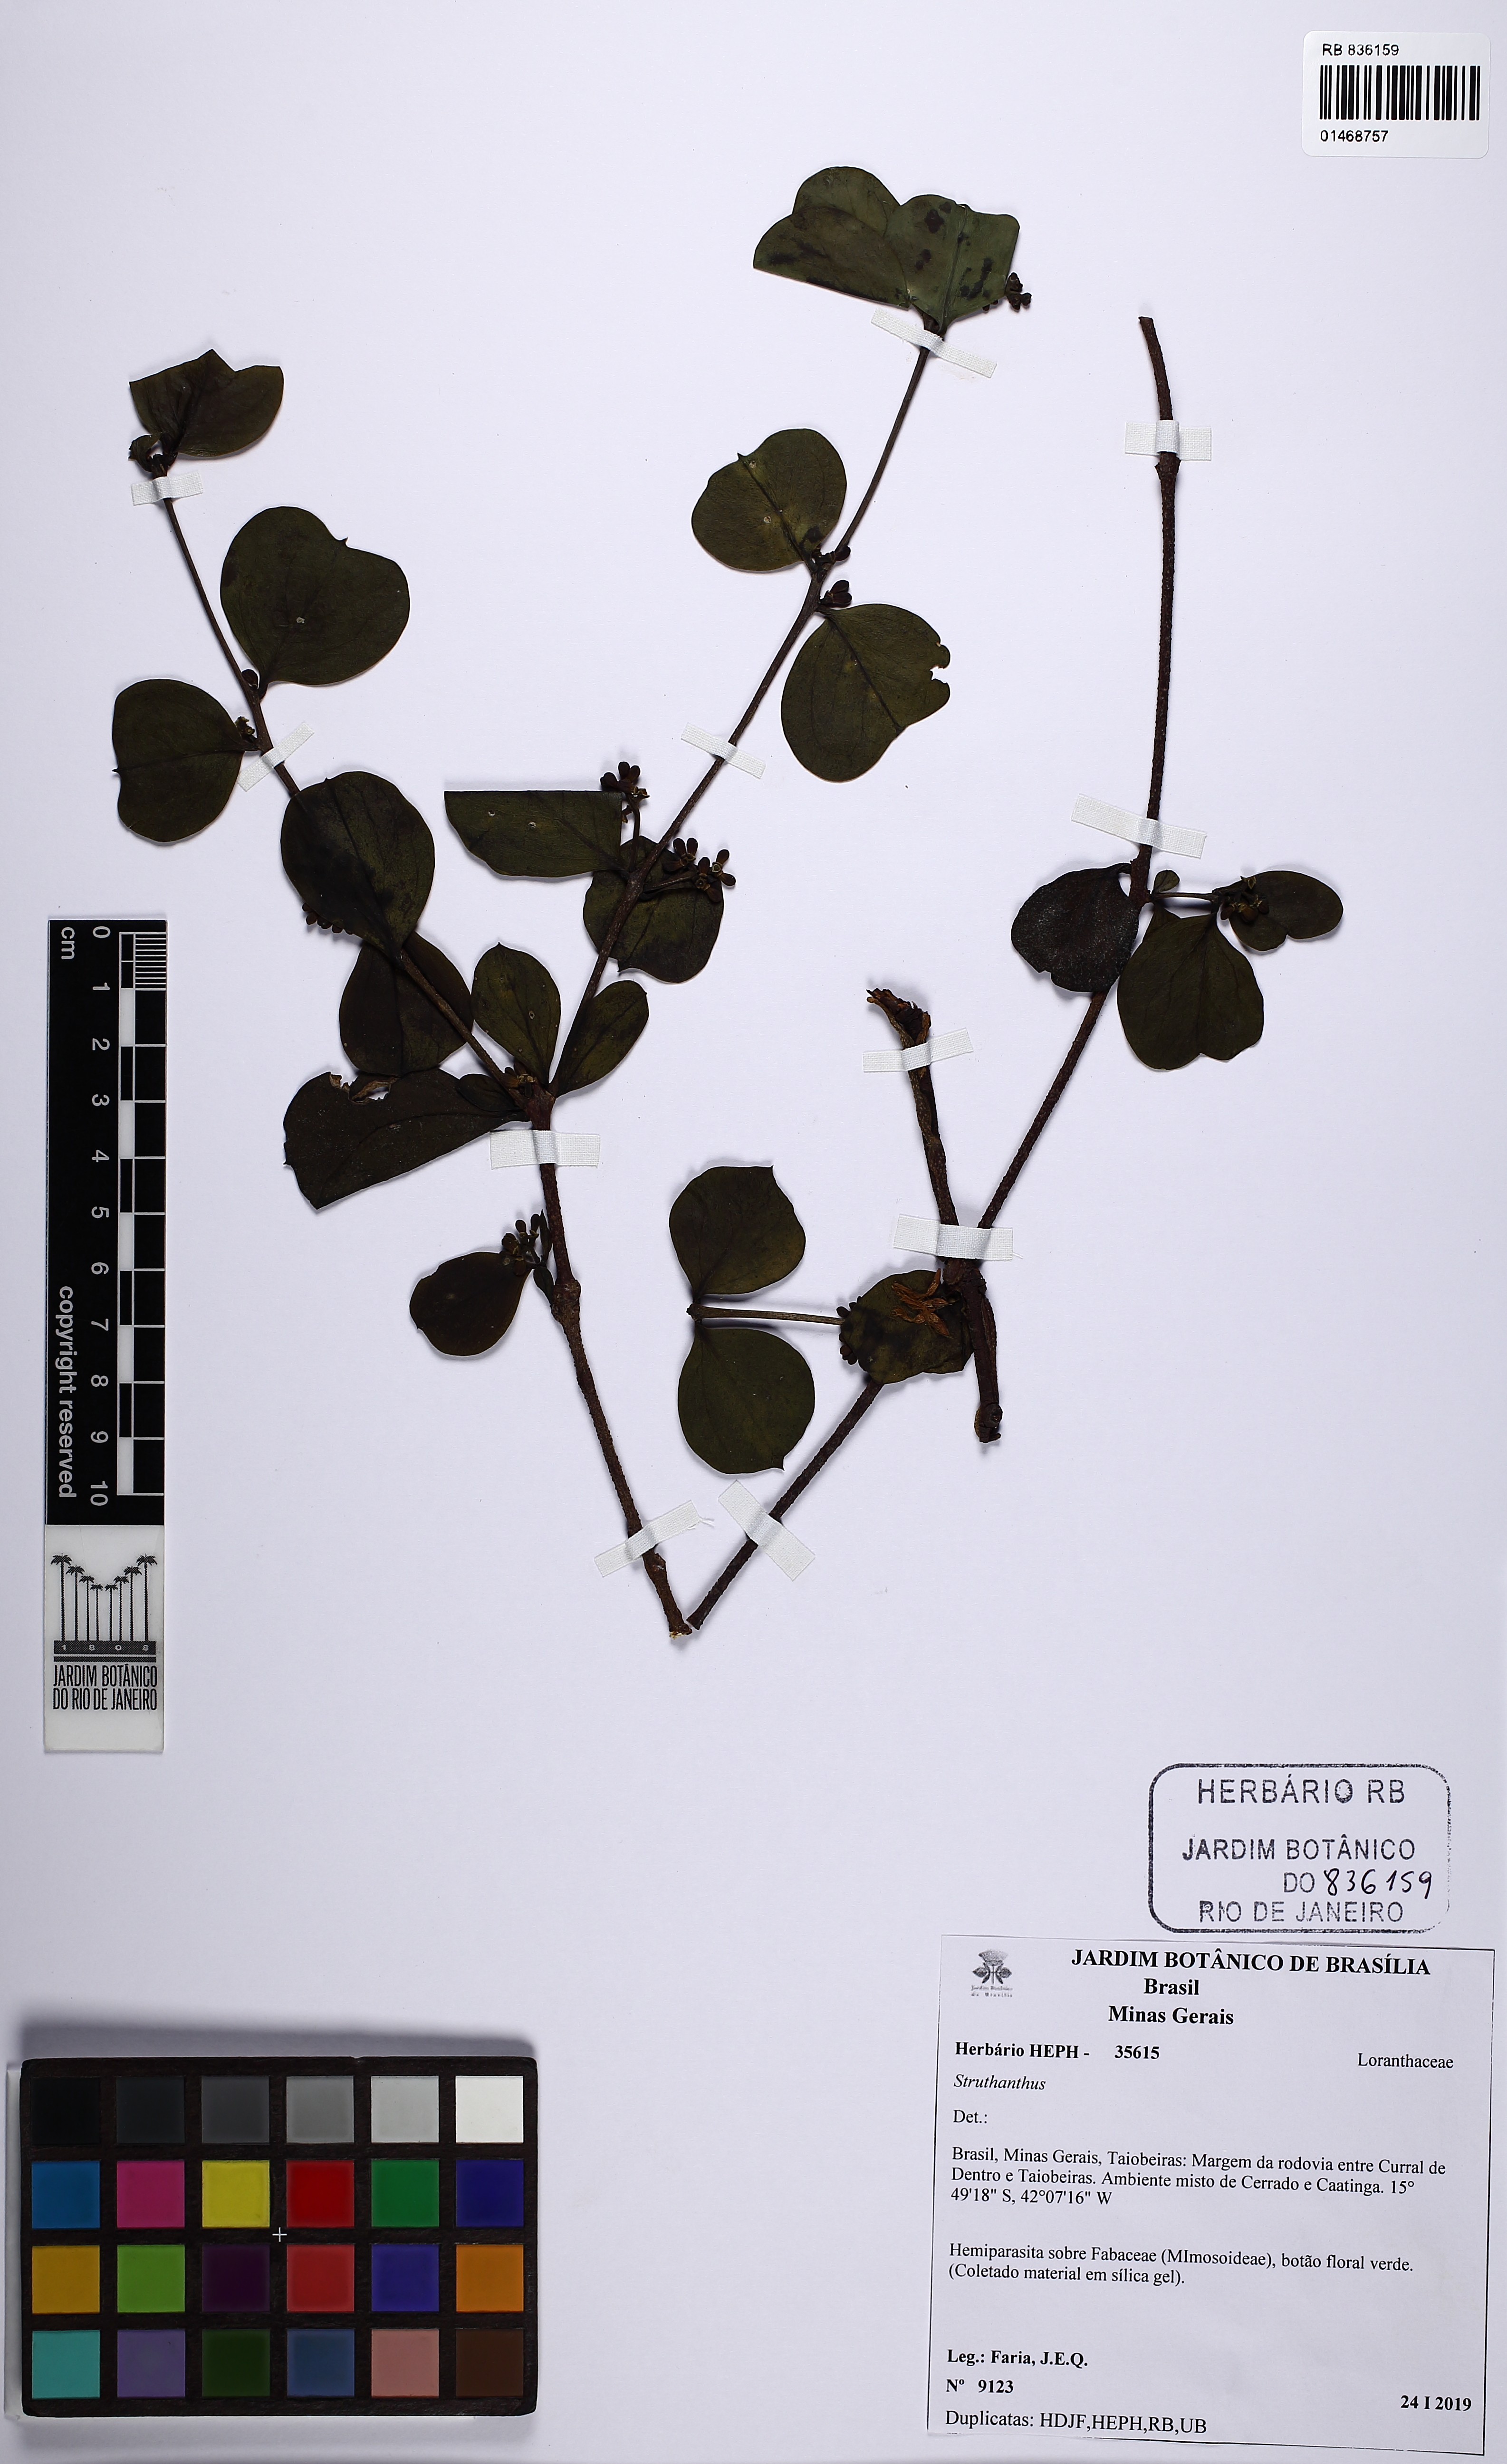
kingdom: Plantae
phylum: Tracheophyta
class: Magnoliopsida
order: Santalales
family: Loranthaceae
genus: Struthanthus
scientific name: Struthanthus
